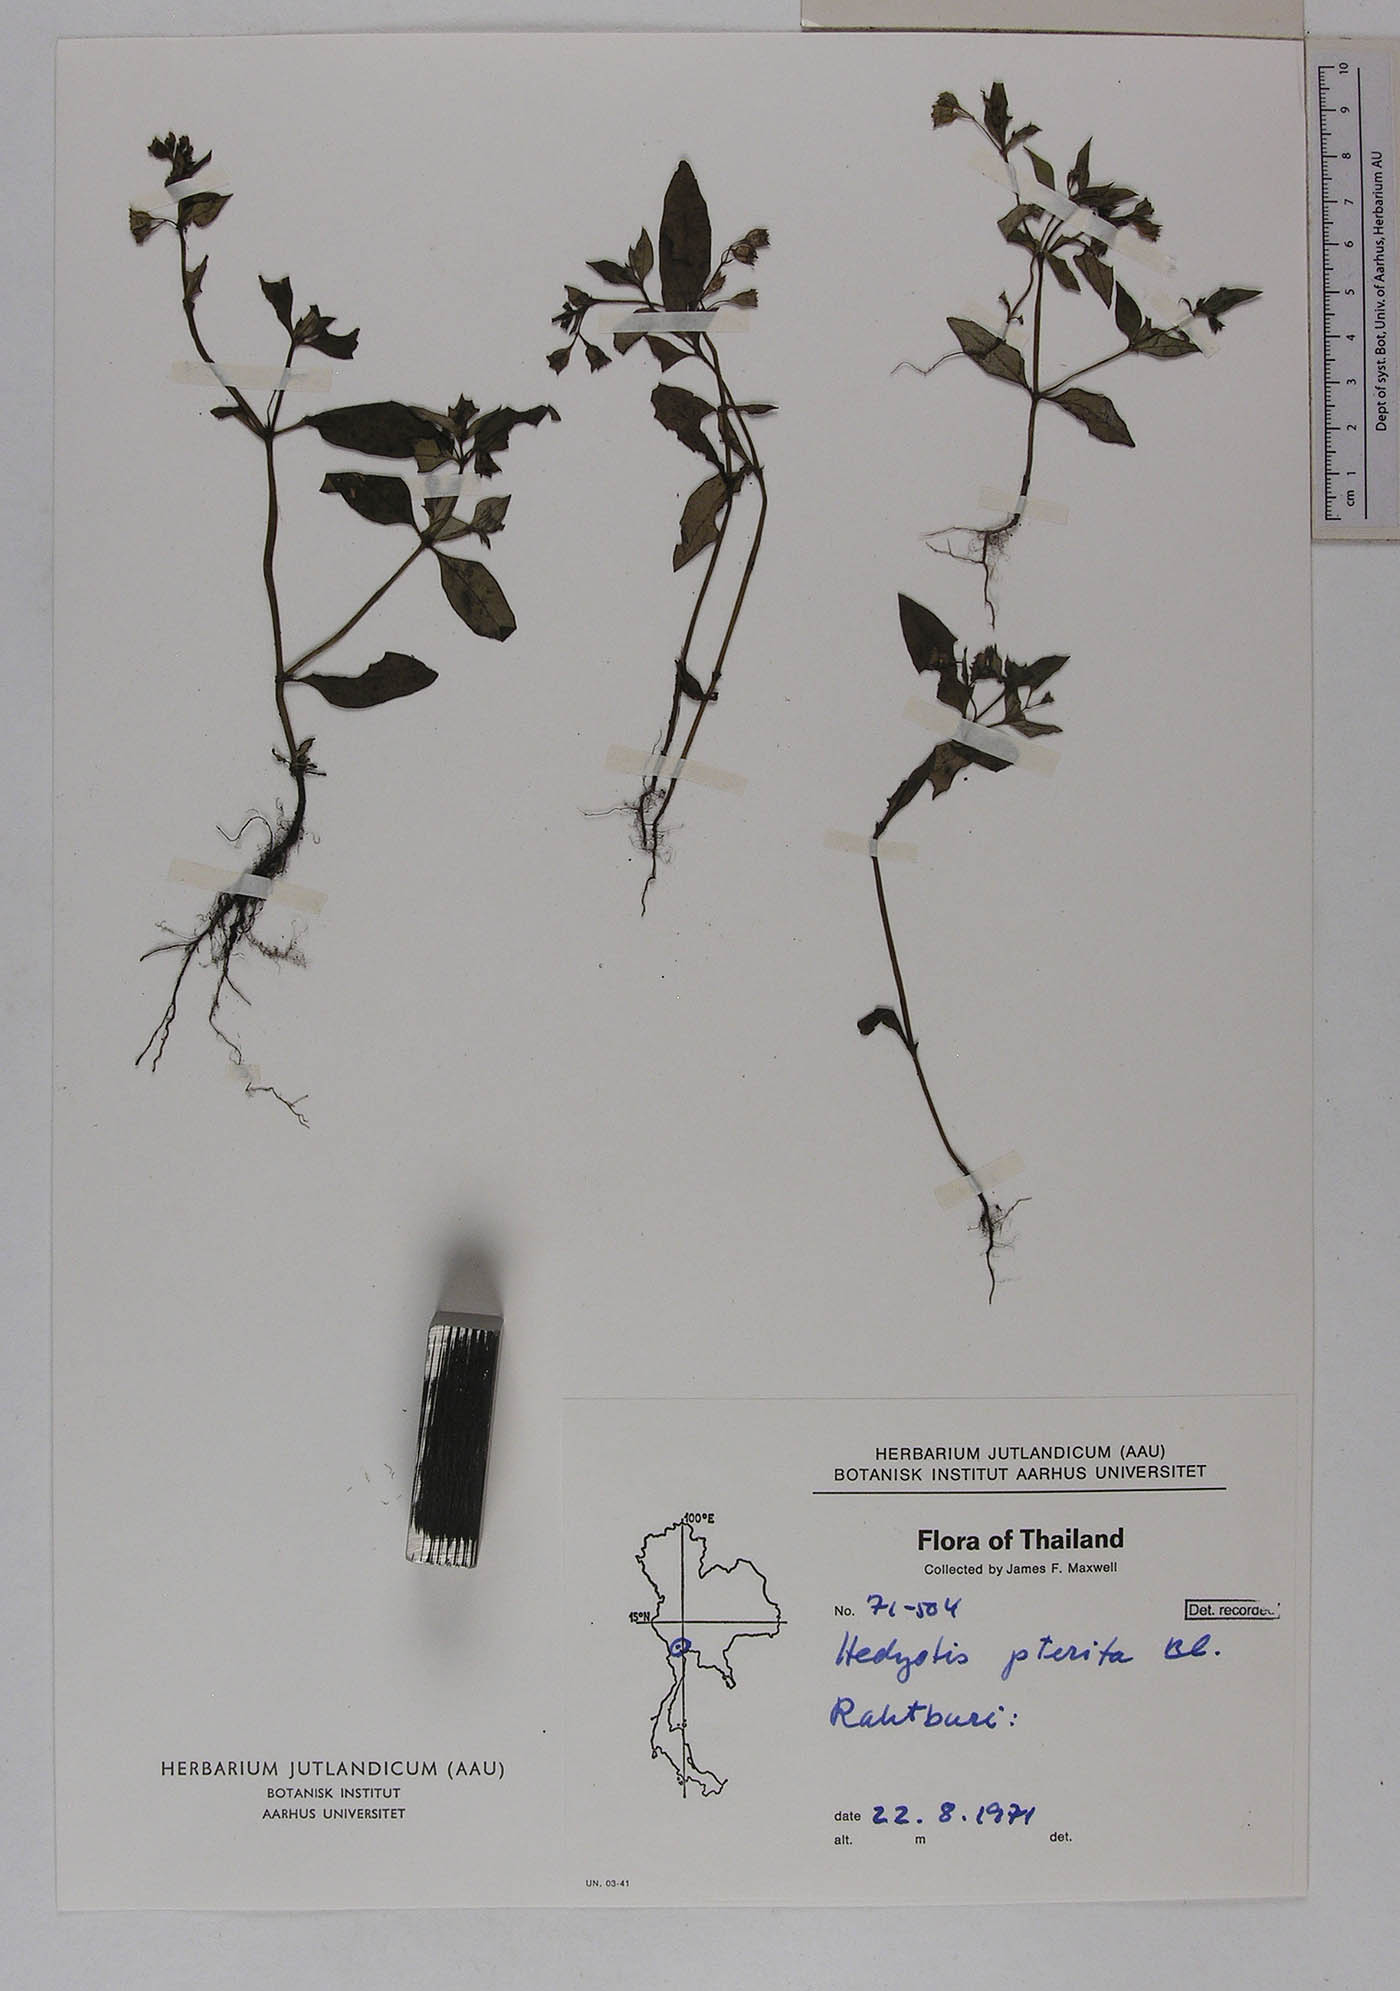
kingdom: Plantae
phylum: Tracheophyta
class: Magnoliopsida
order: Gentianales
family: Rubiaceae
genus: Leptopetalum
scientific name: Leptopetalum pteritum
